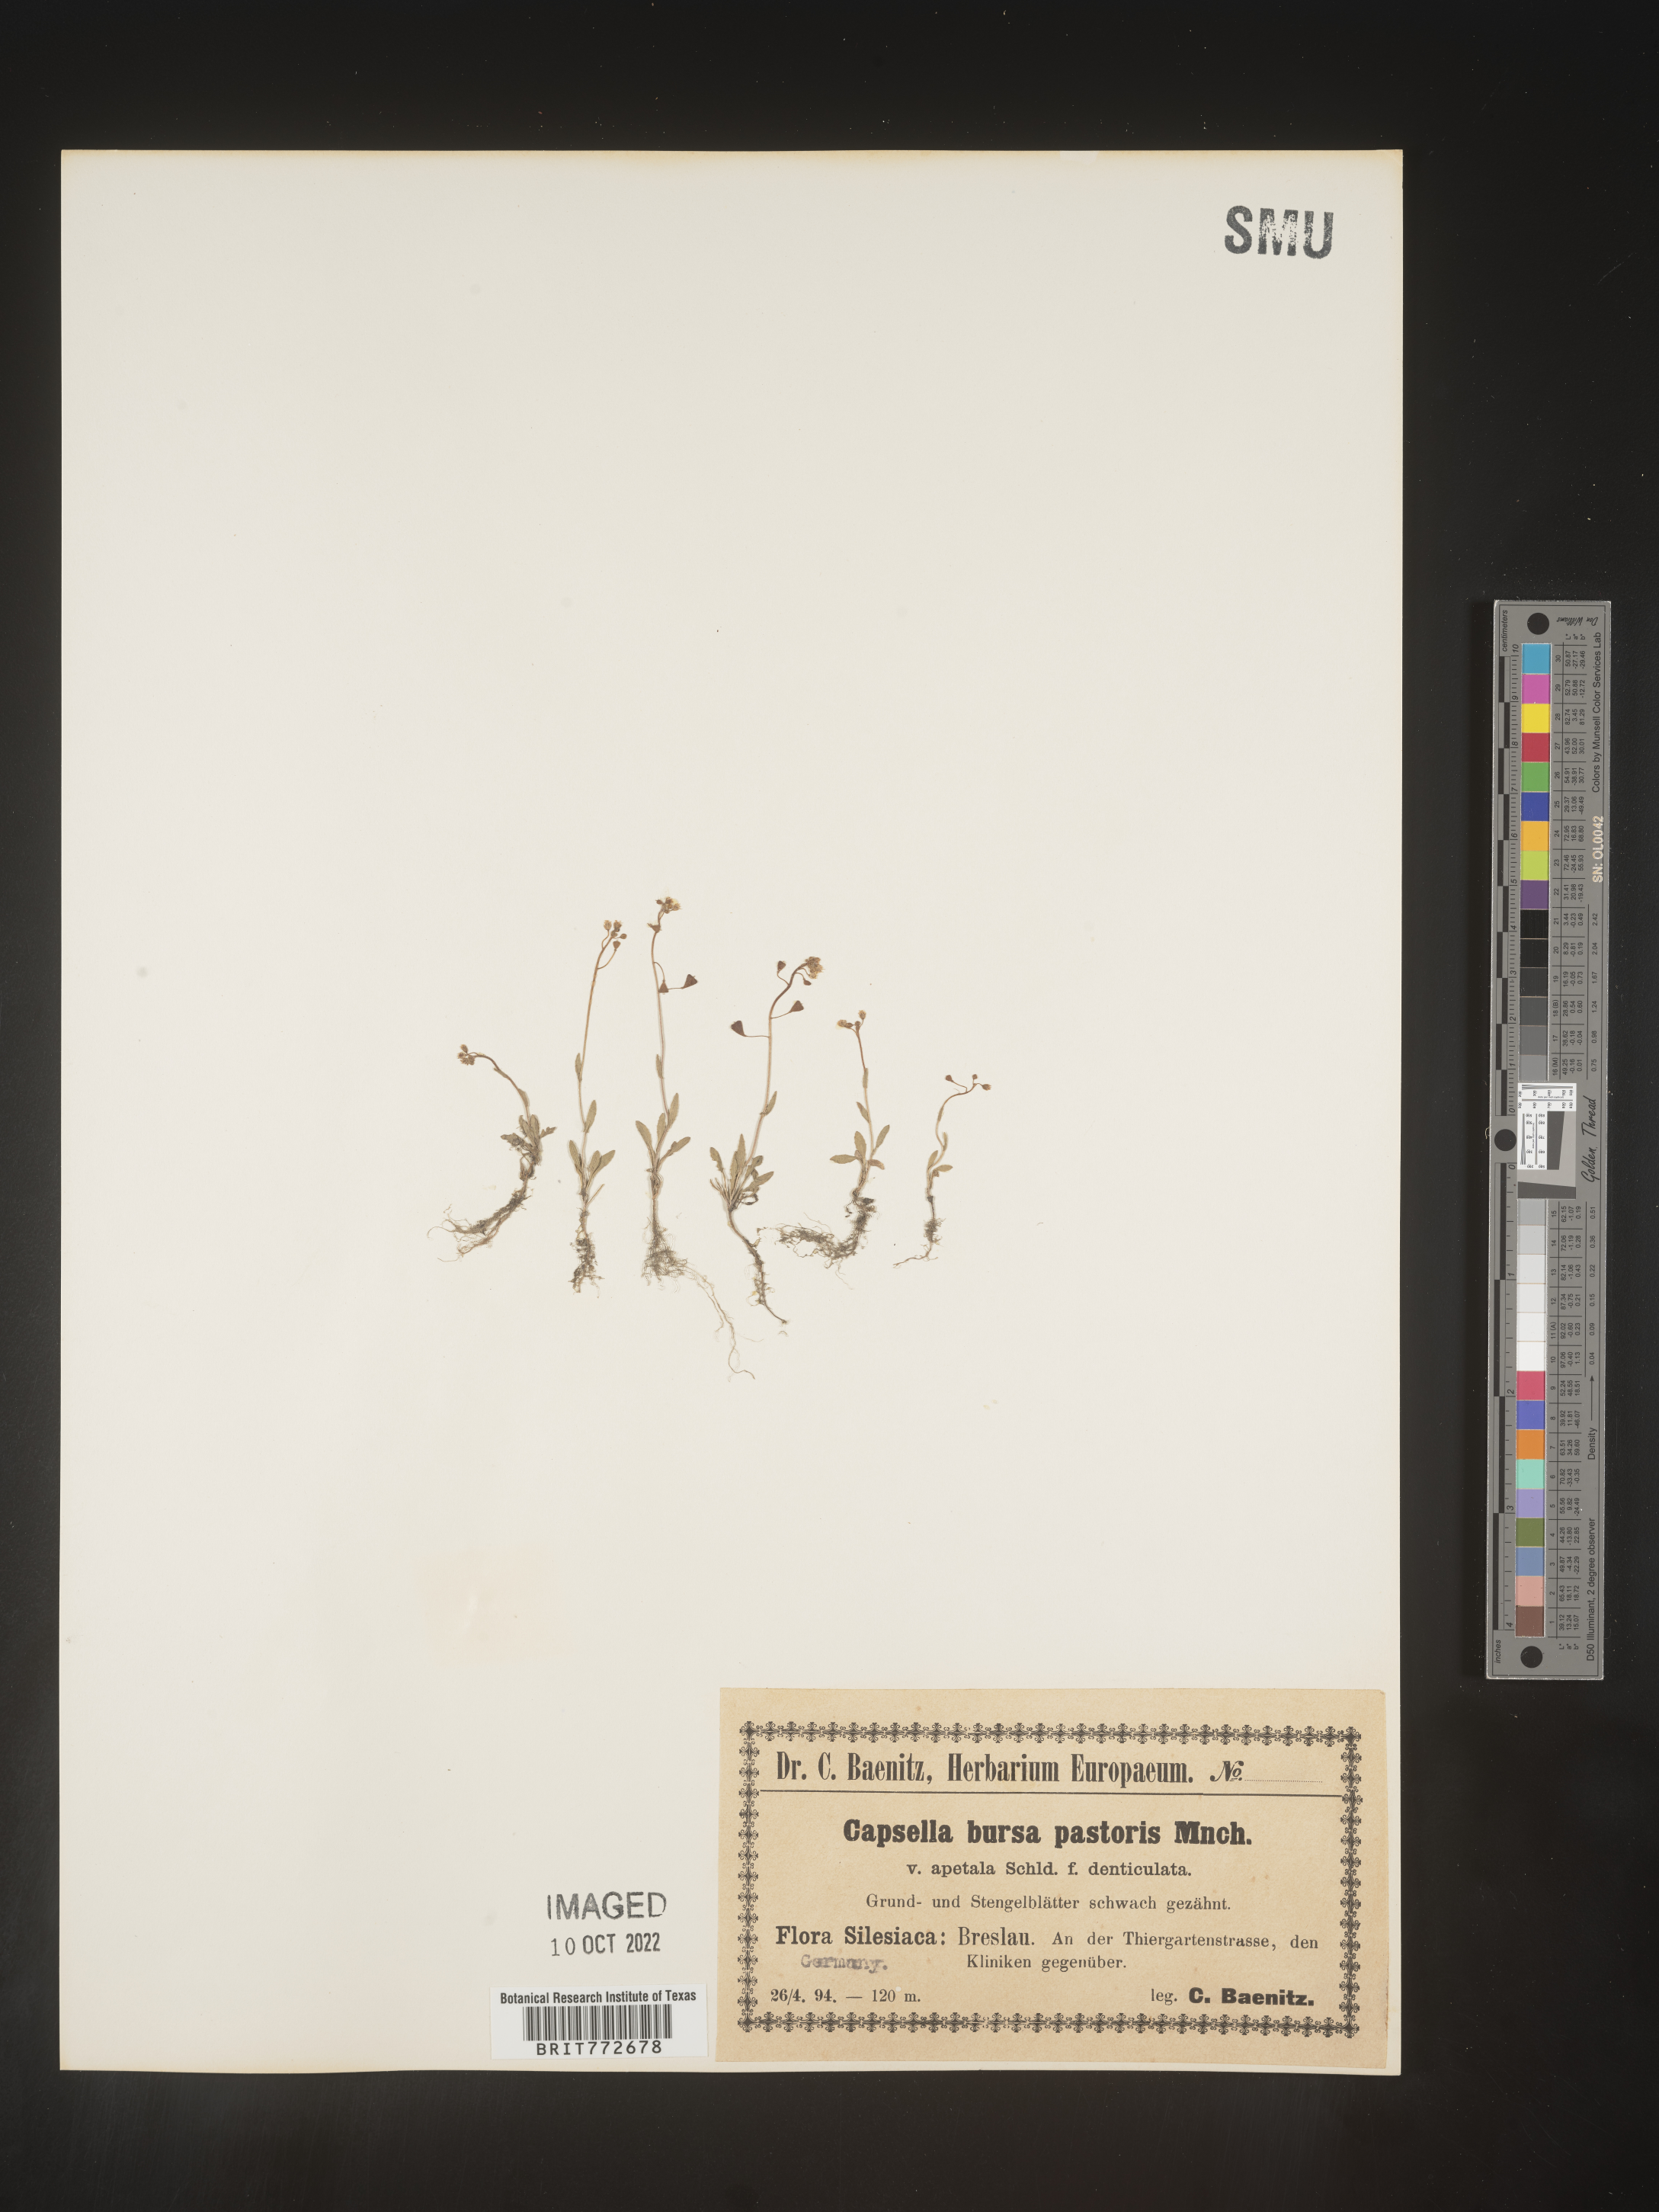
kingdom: Plantae
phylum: Tracheophyta
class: Magnoliopsida
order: Brassicales
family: Brassicaceae
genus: Capsella
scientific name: Capsella
